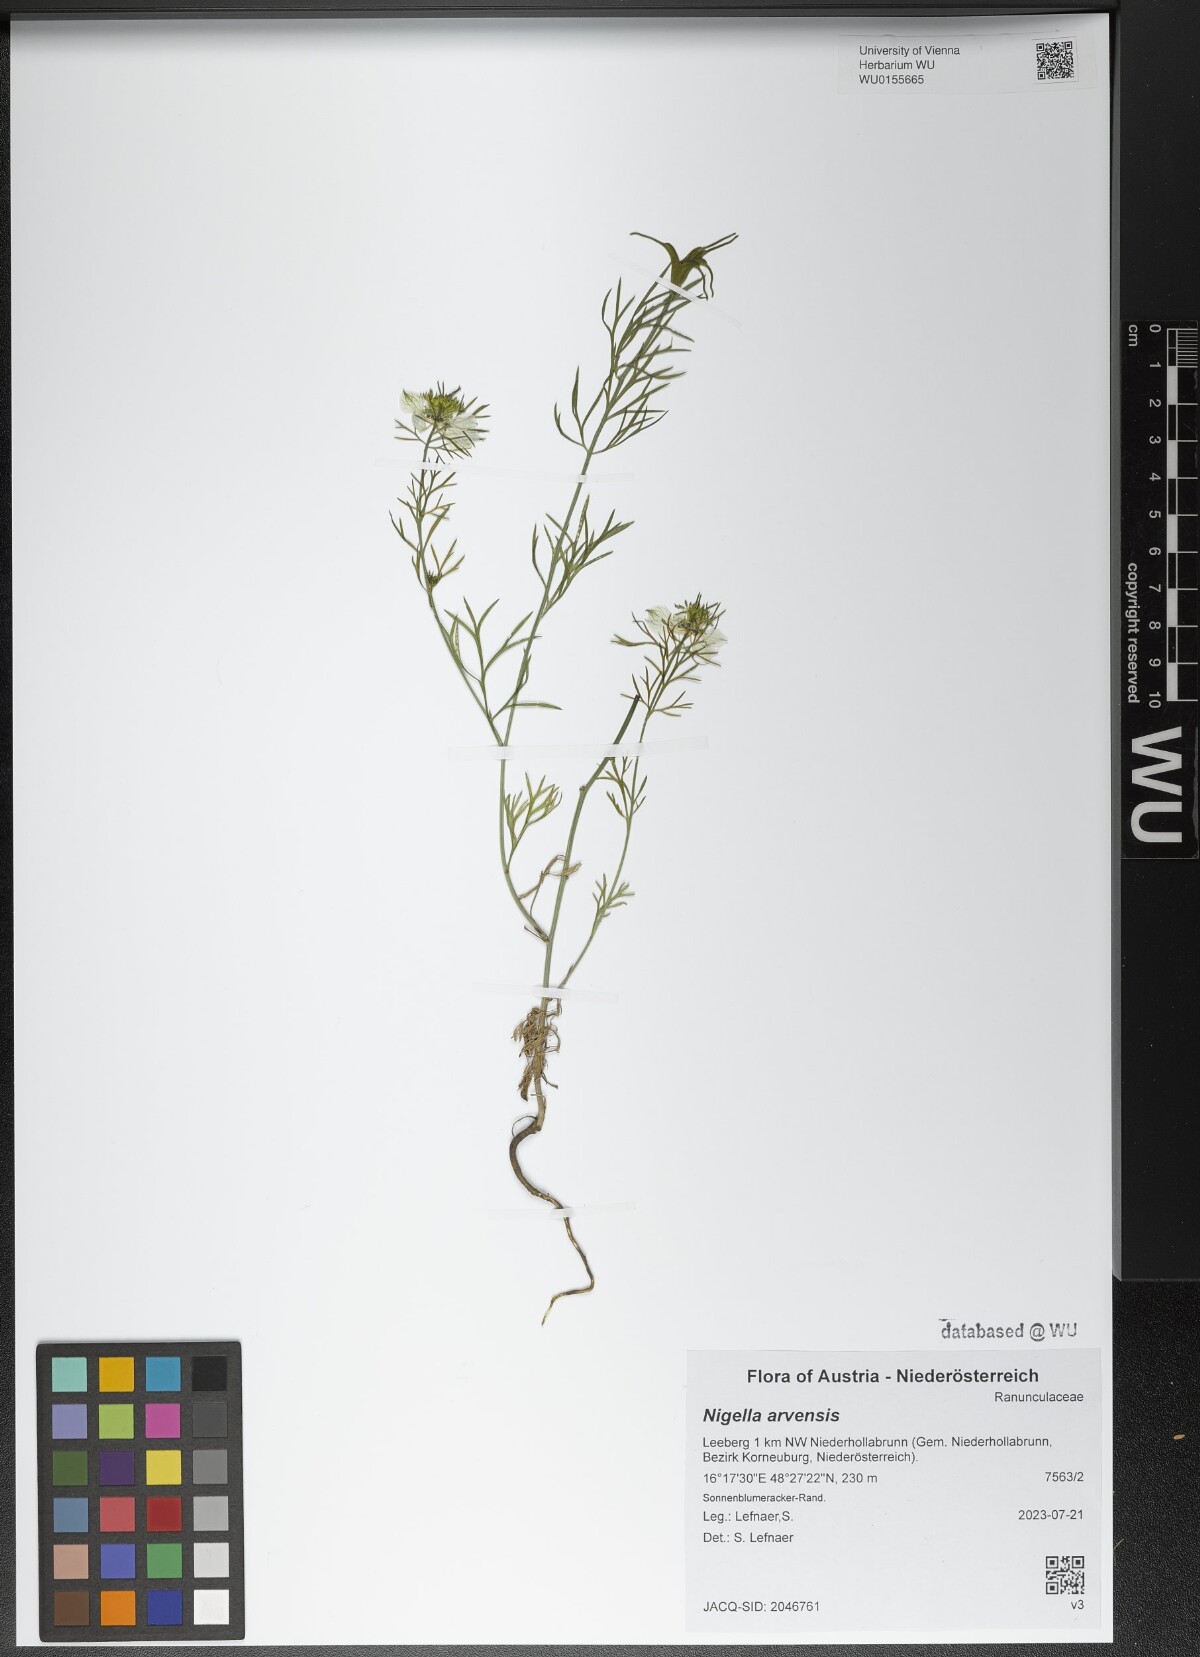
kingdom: Plantae
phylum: Tracheophyta
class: Magnoliopsida
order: Ranunculales
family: Ranunculaceae
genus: Nigella
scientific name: Nigella arvensis
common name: Wild fennel-flower
